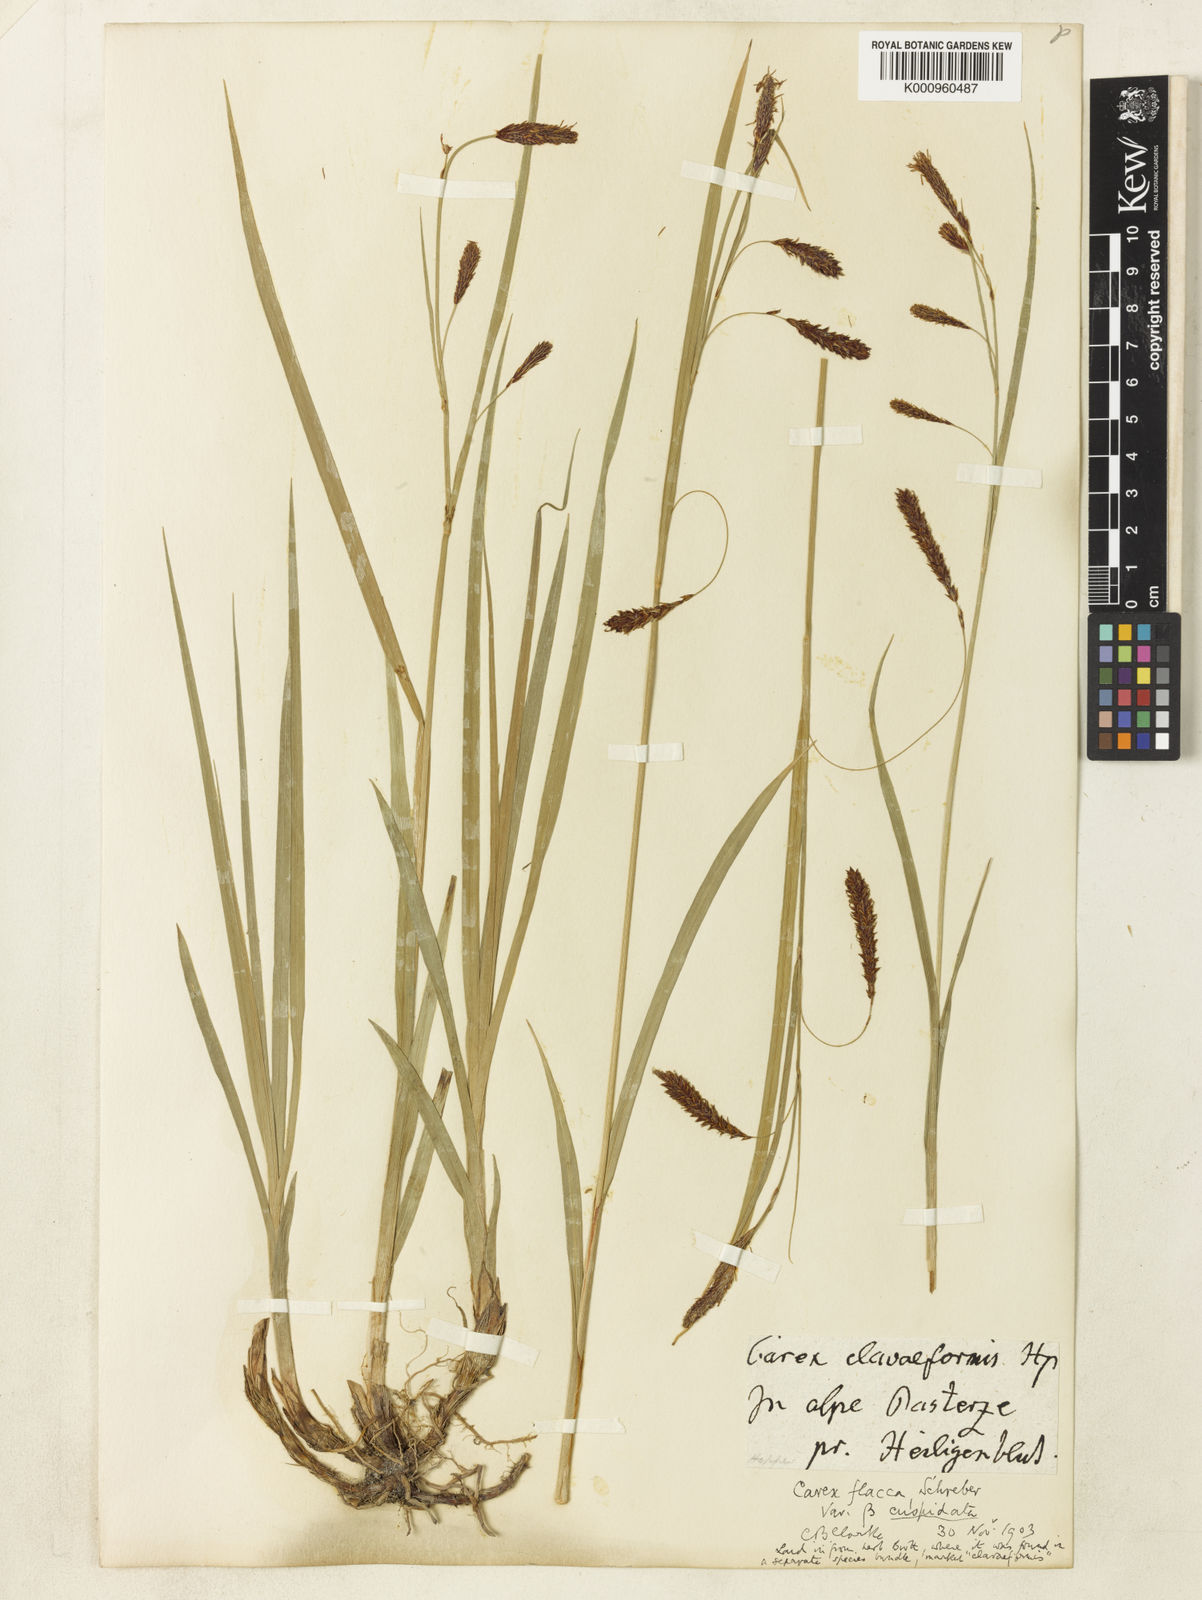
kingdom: Plantae
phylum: Tracheophyta
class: Liliopsida
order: Poales
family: Cyperaceae
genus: Carex
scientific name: Carex flacca
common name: Glaucous sedge
